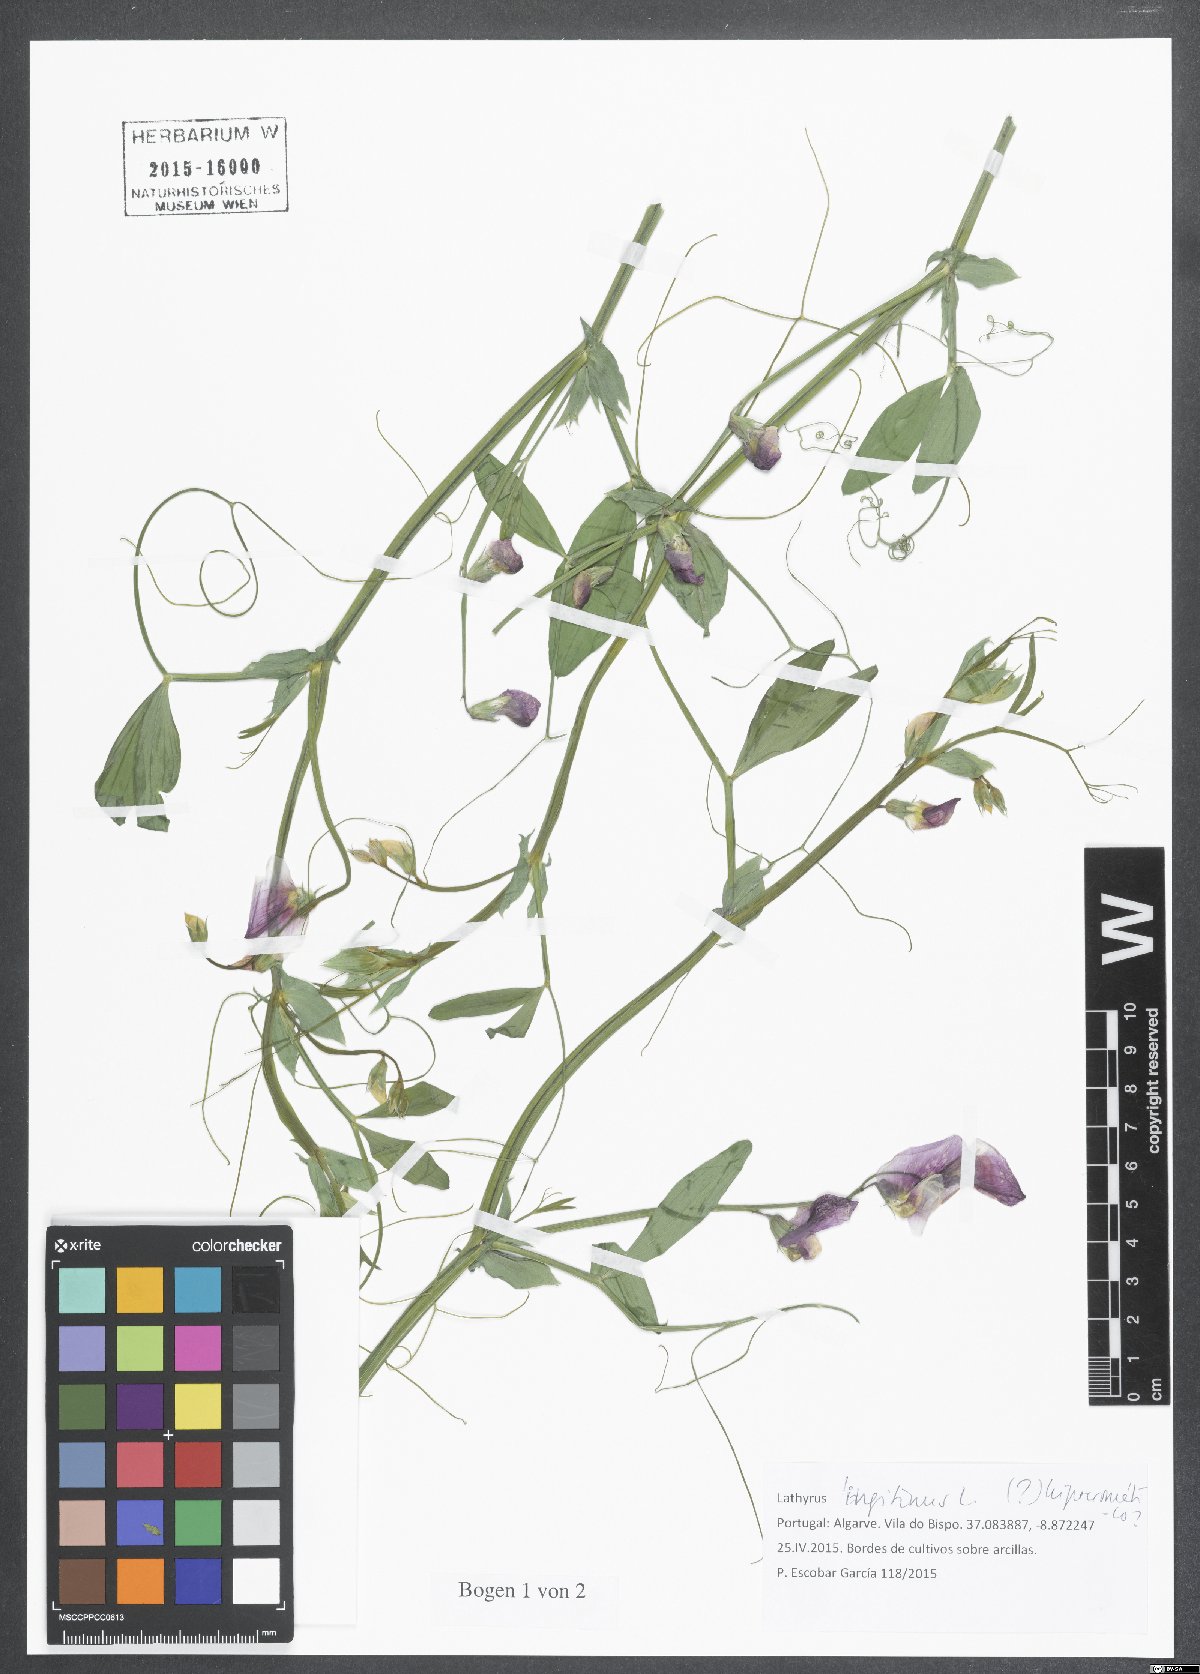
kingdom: Plantae
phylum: Tracheophyta
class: Magnoliopsida
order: Fabales
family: Fabaceae
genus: Lathyrus
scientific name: Lathyrus tingitanus
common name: Tangier pea
